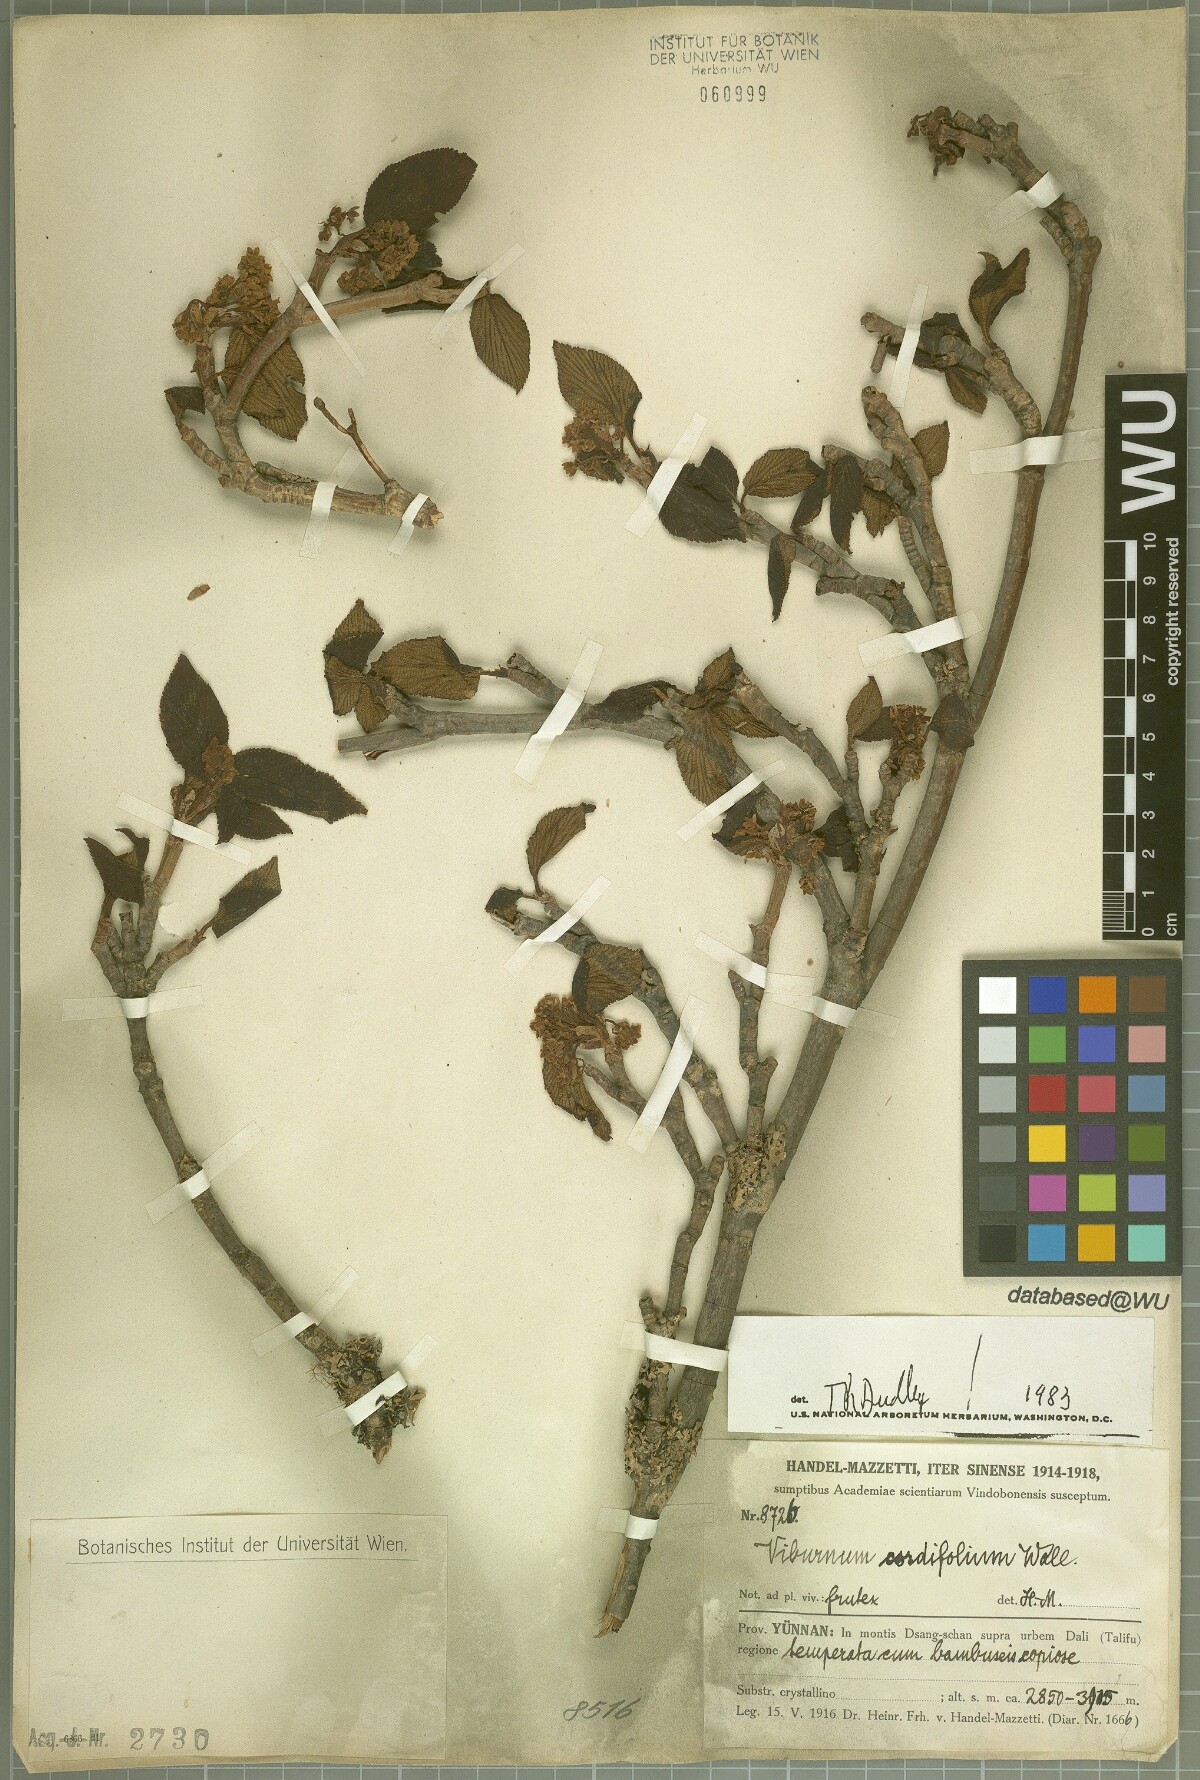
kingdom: Plantae
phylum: Tracheophyta
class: Magnoliopsida
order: Dipsacales
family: Viburnaceae
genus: Viburnum
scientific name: Viburnum nervosum
